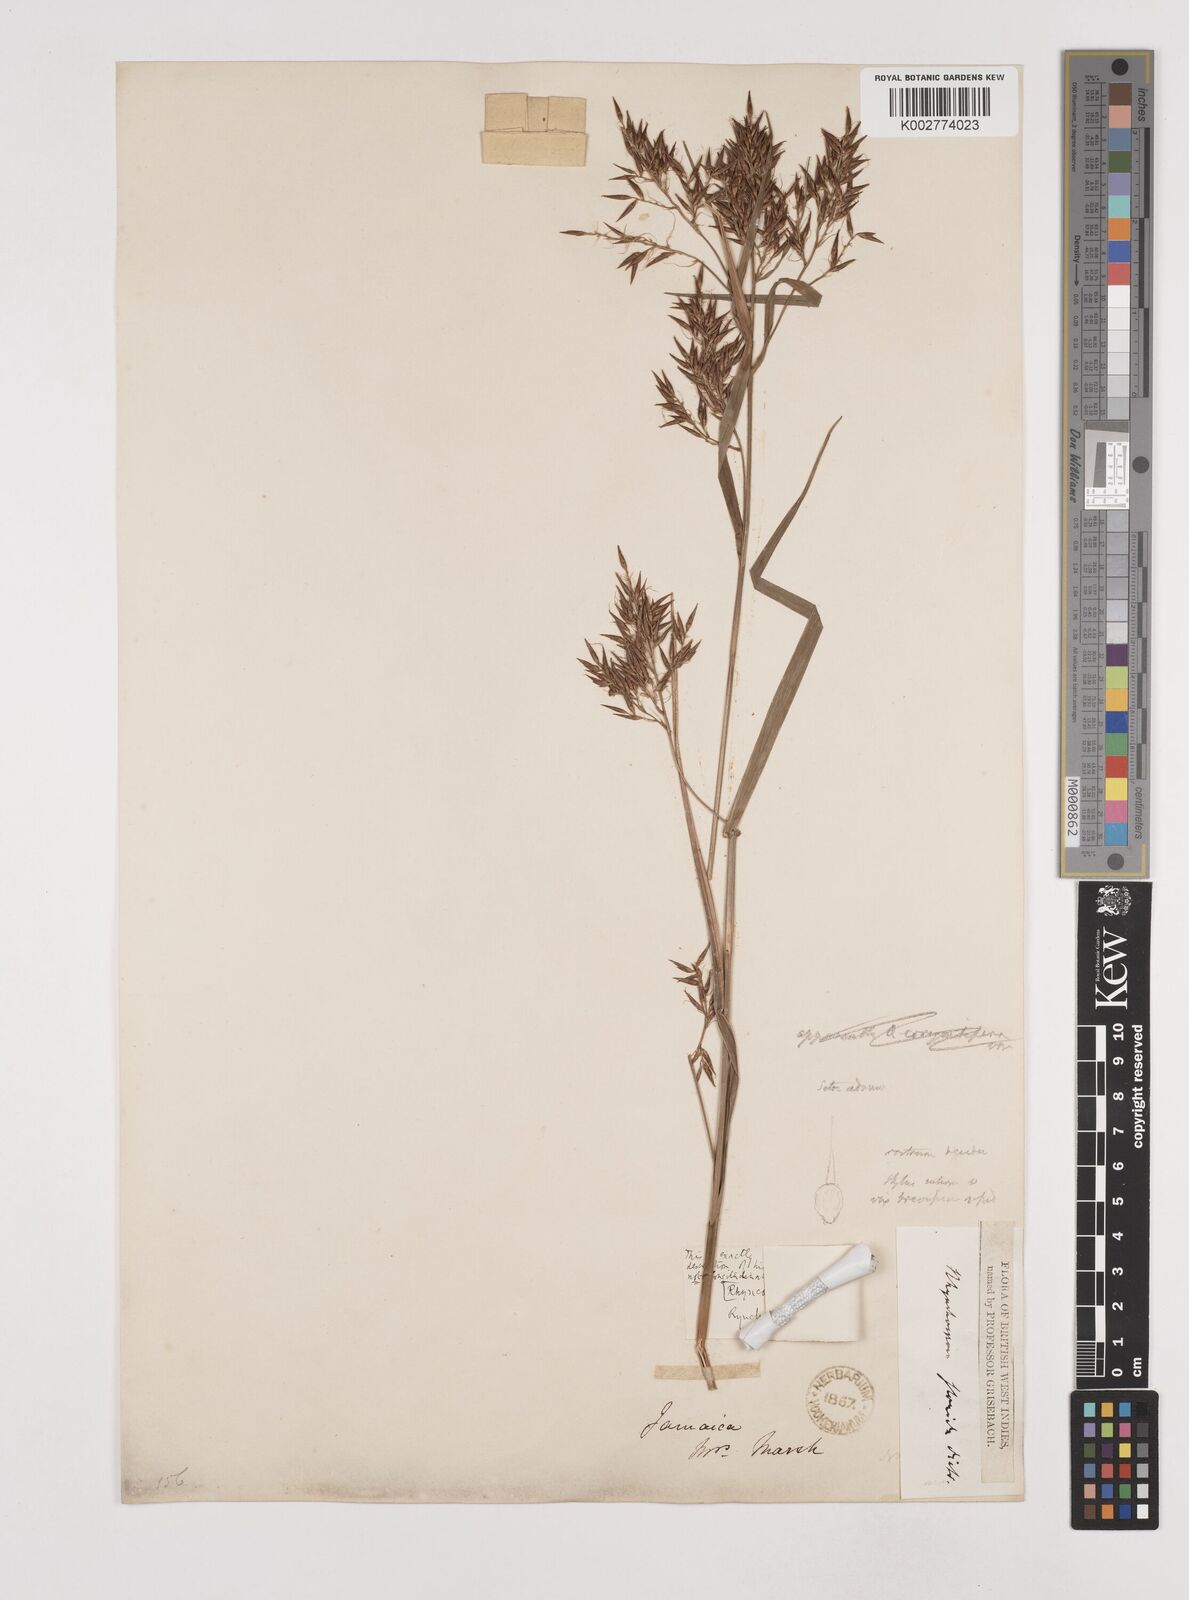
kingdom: Plantae
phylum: Tracheophyta
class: Liliopsida
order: Poales
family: Cyperaceae
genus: Rhynchospora
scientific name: Rhynchospora longiflora
